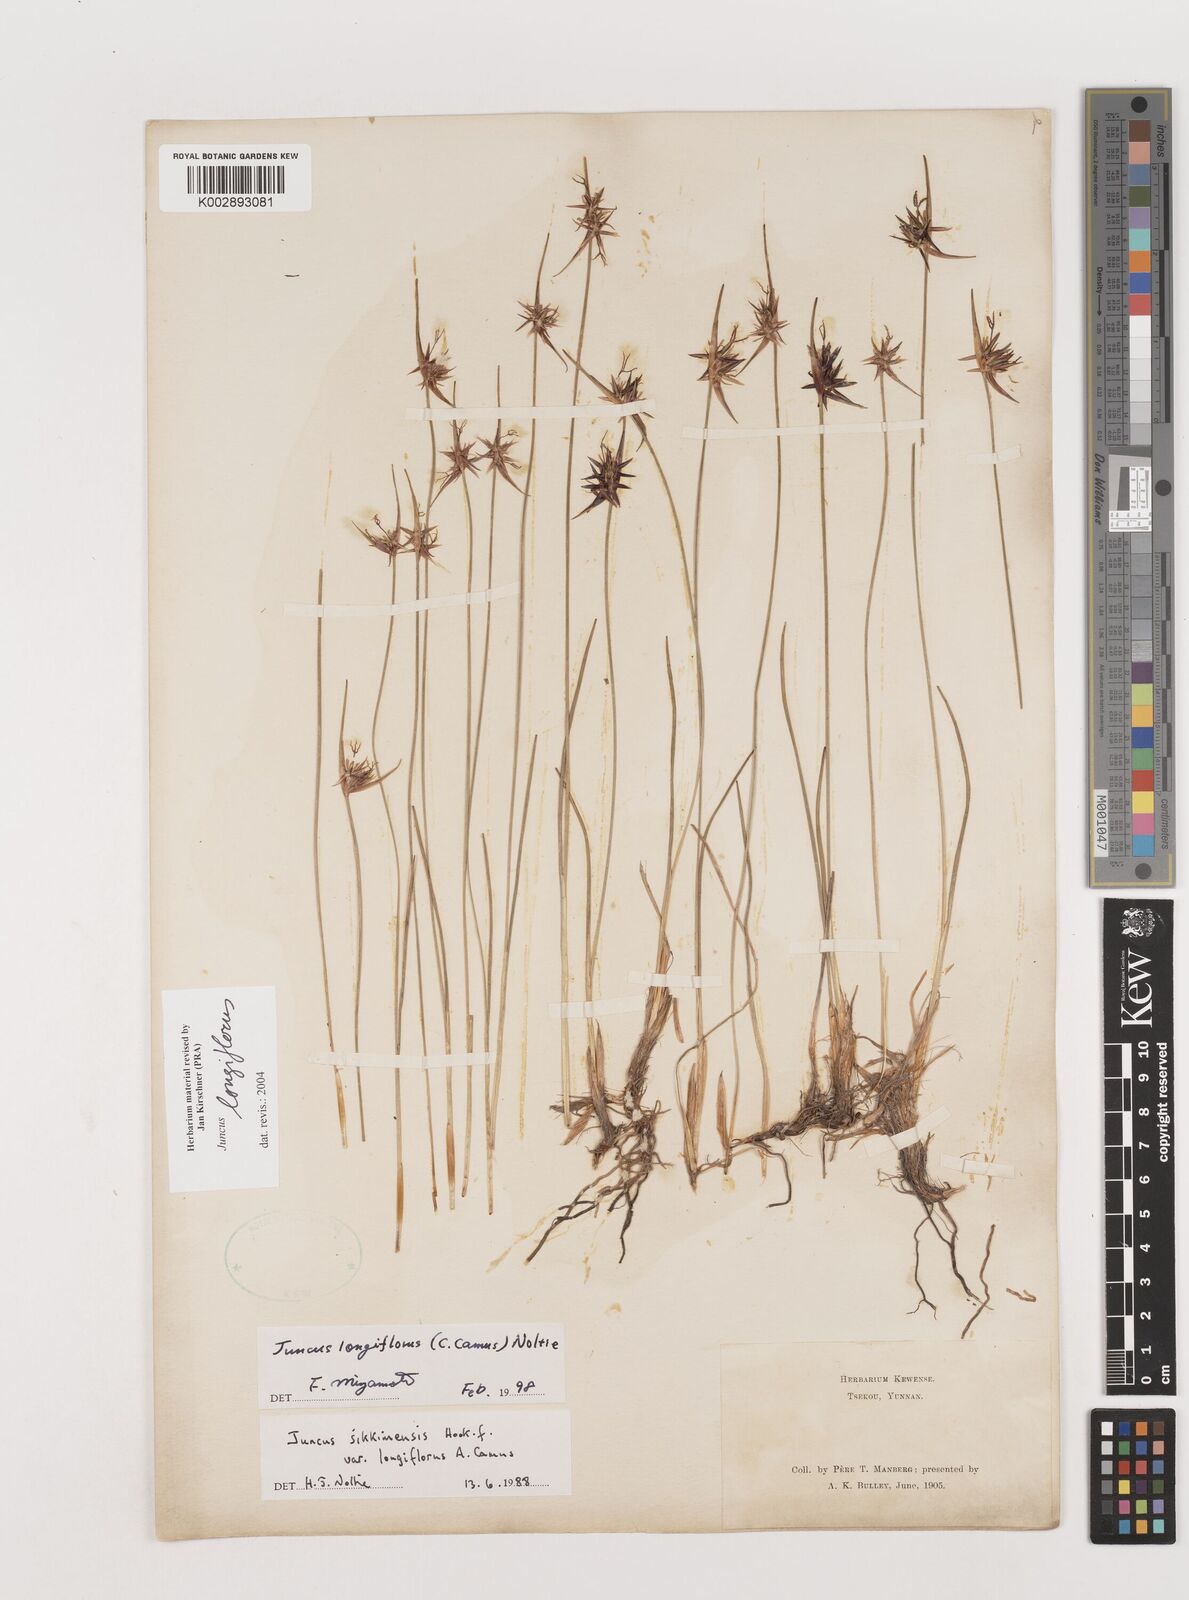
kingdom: Plantae
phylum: Tracheophyta
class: Liliopsida
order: Poales
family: Juncaceae
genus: Juncus
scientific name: Juncus longiflorus
